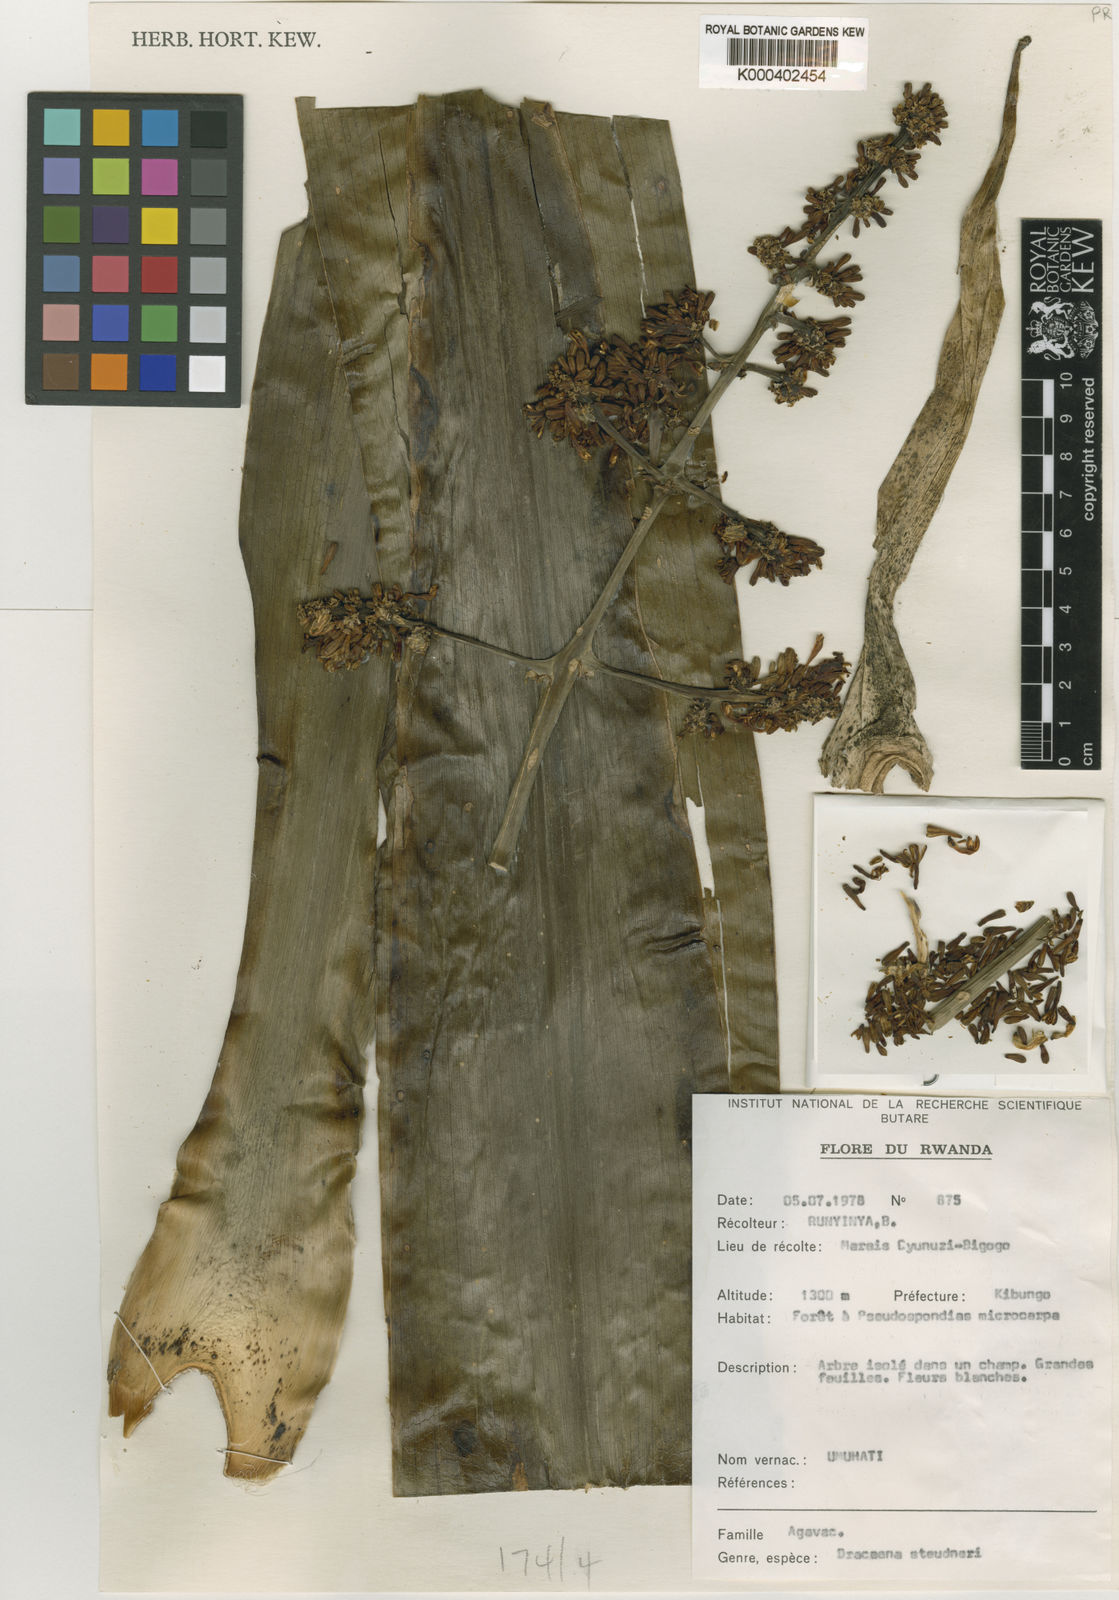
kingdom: Plantae
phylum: Tracheophyta
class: Liliopsida
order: Asparagales
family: Asparagaceae
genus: Dracaena
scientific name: Dracaena steudneri
